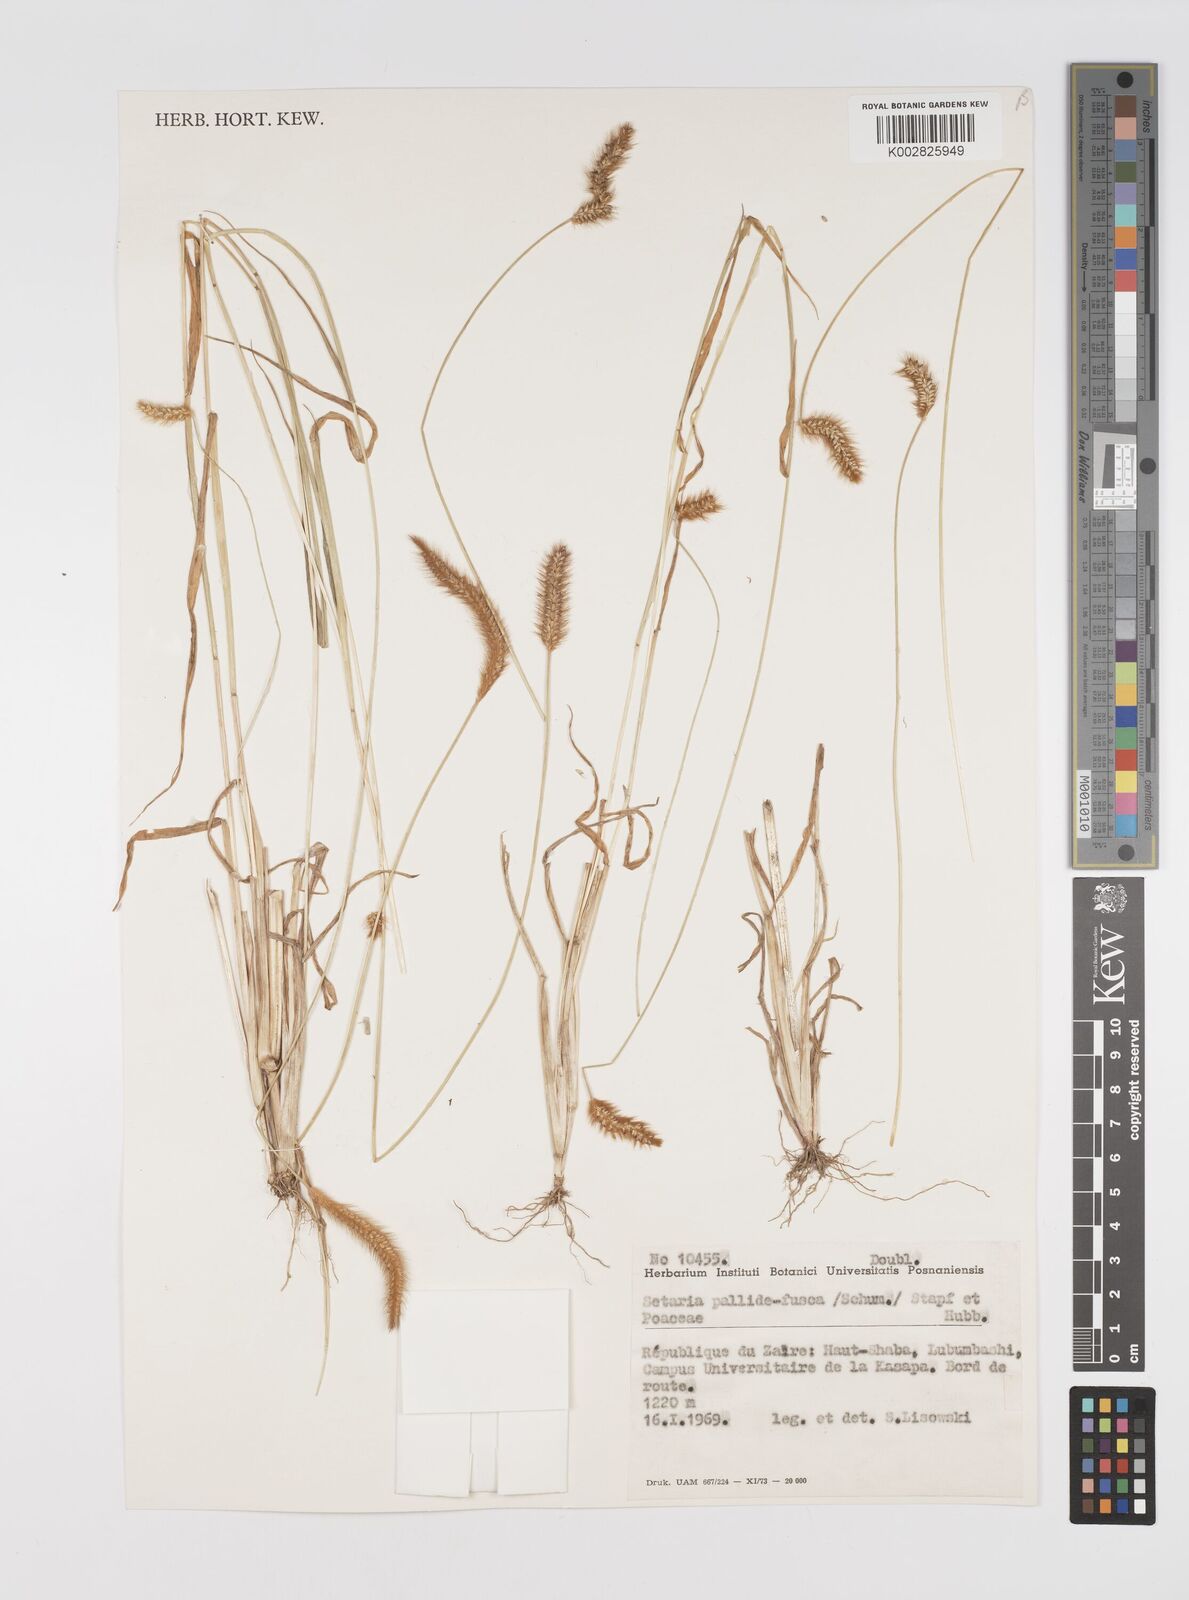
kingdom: Plantae
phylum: Tracheophyta
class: Liliopsida
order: Poales
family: Poaceae
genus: Setaria
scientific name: Setaria pumila
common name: Yellow bristle-grass
